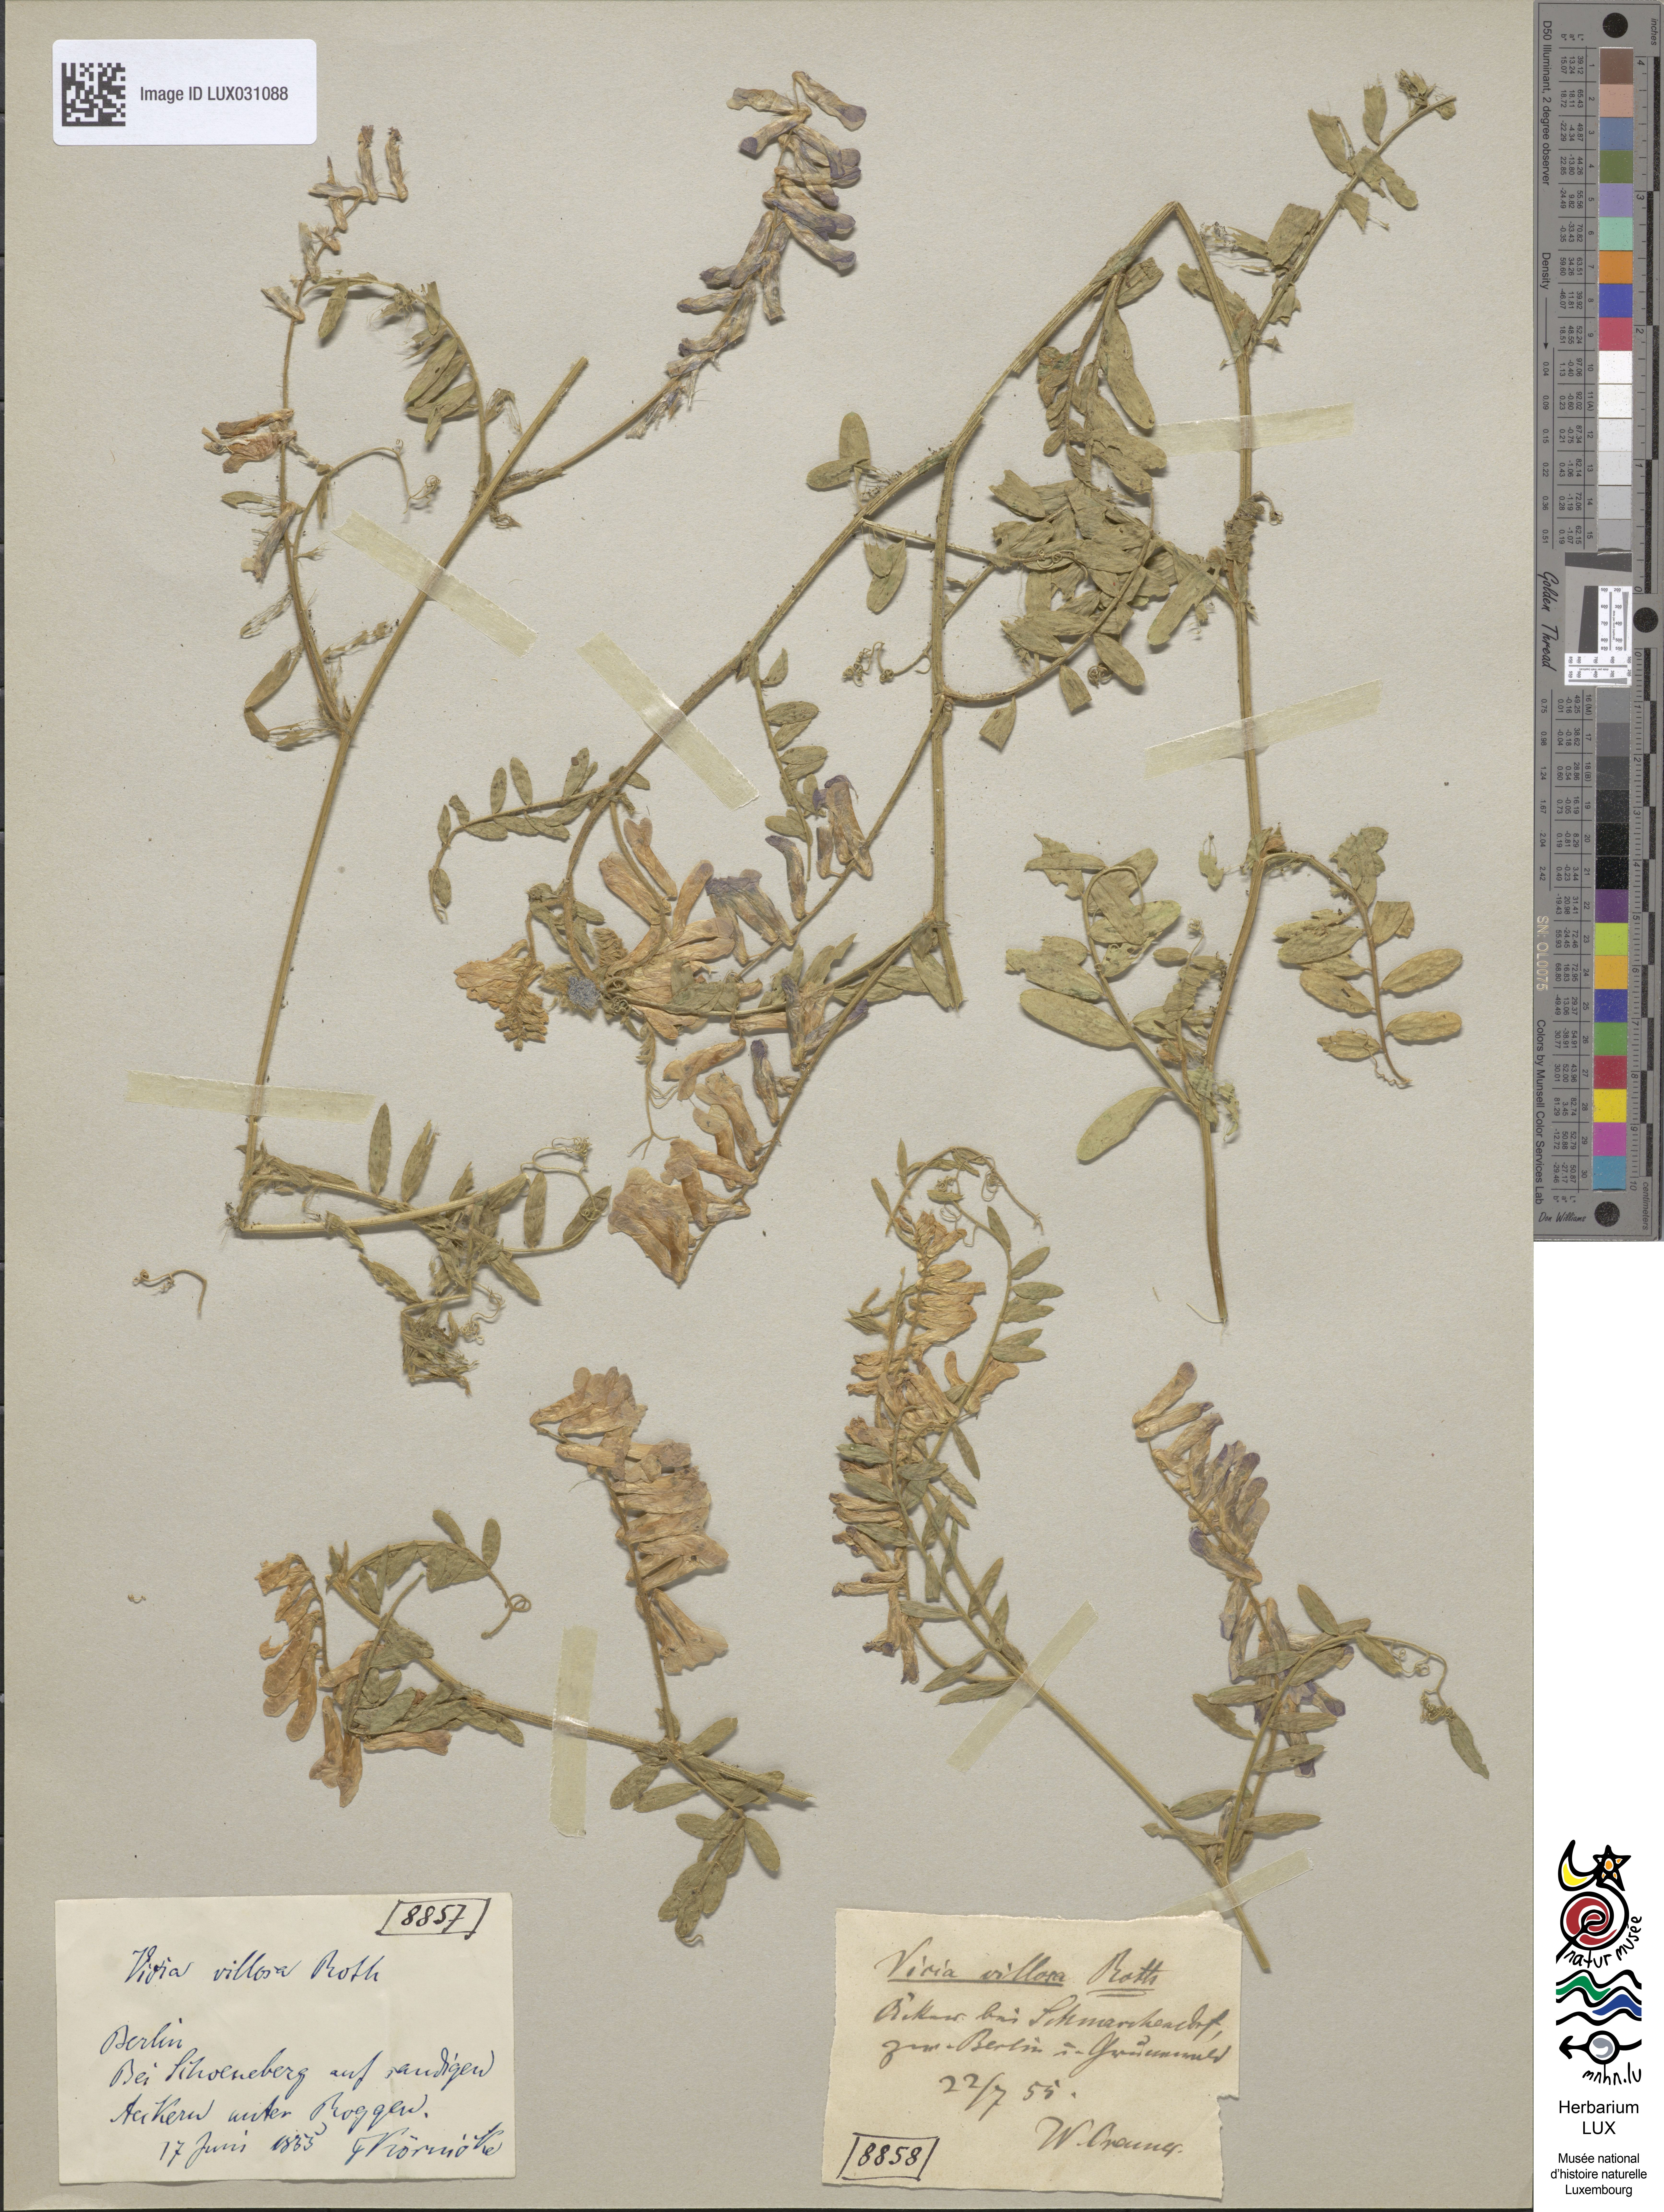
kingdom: Plantae
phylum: Tracheophyta
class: Magnoliopsida
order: Fabales
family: Fabaceae
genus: Vicia
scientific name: Vicia villosa
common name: Fodder vetch
